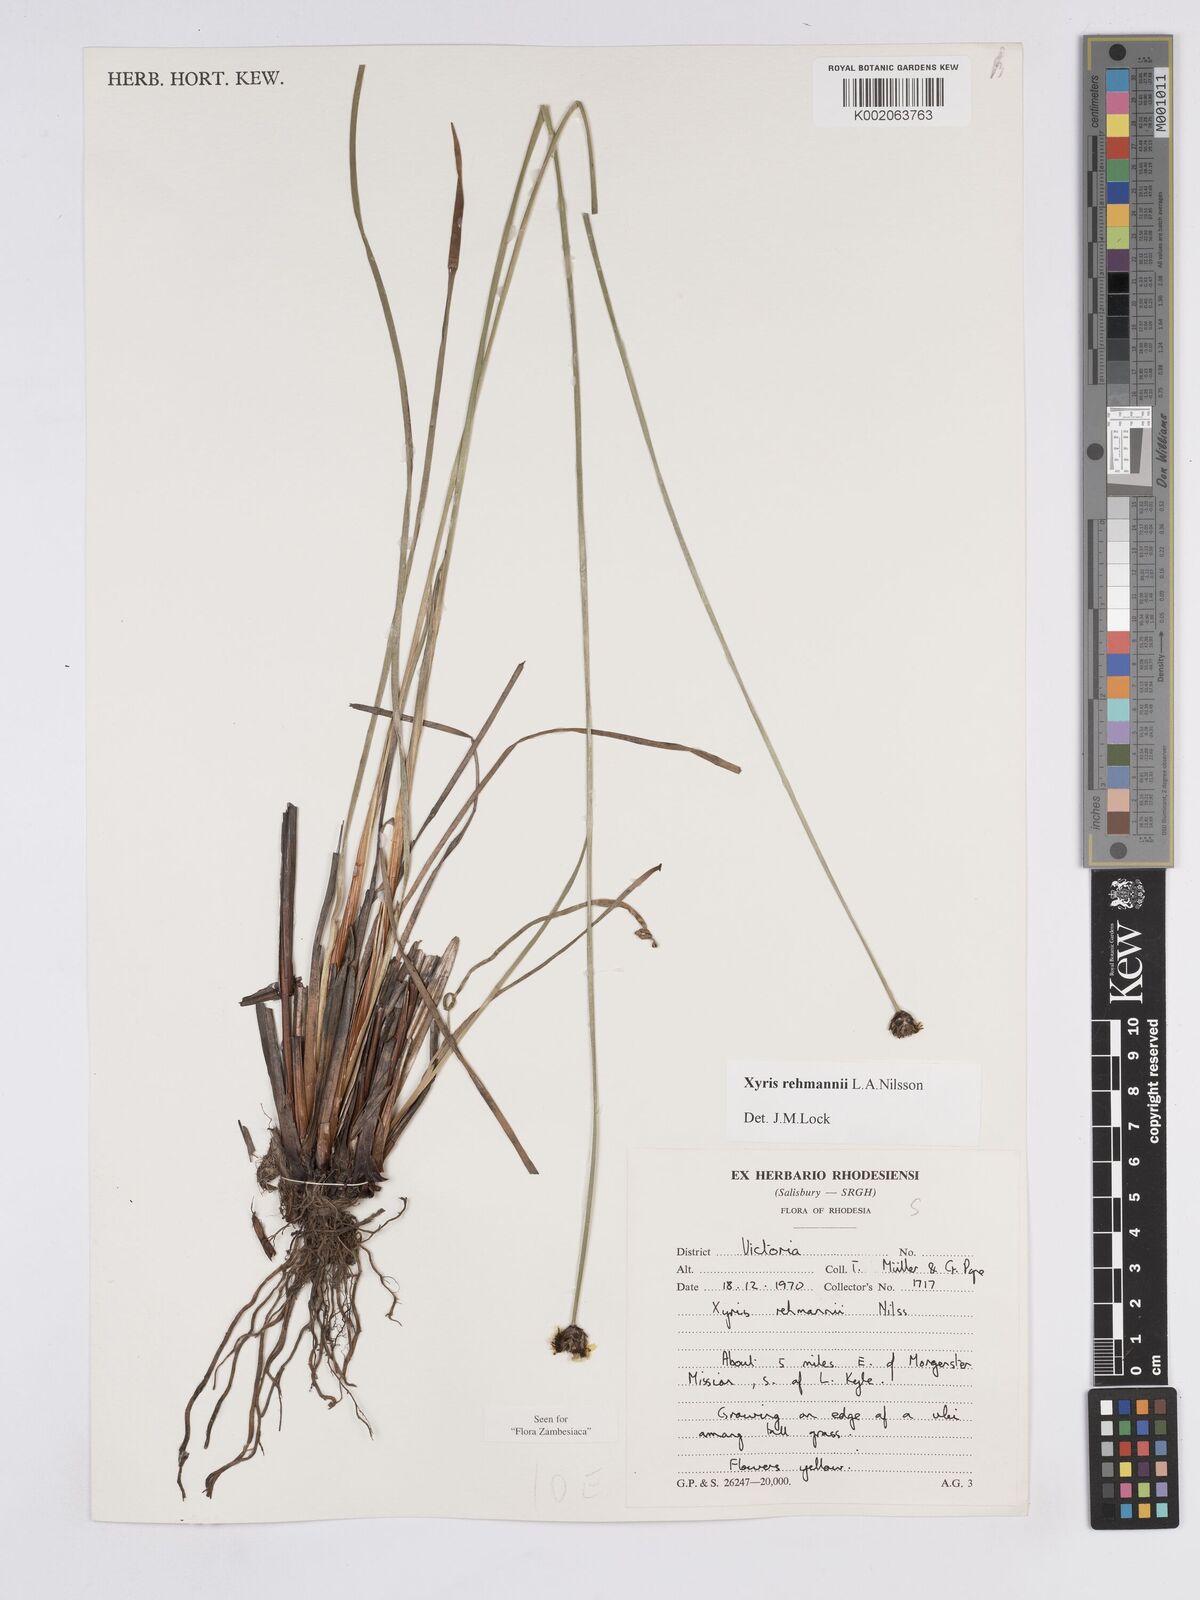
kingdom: Plantae
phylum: Tracheophyta
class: Liliopsida
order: Poales
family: Xyridaceae
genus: Xyris
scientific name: Xyris rehmannii
